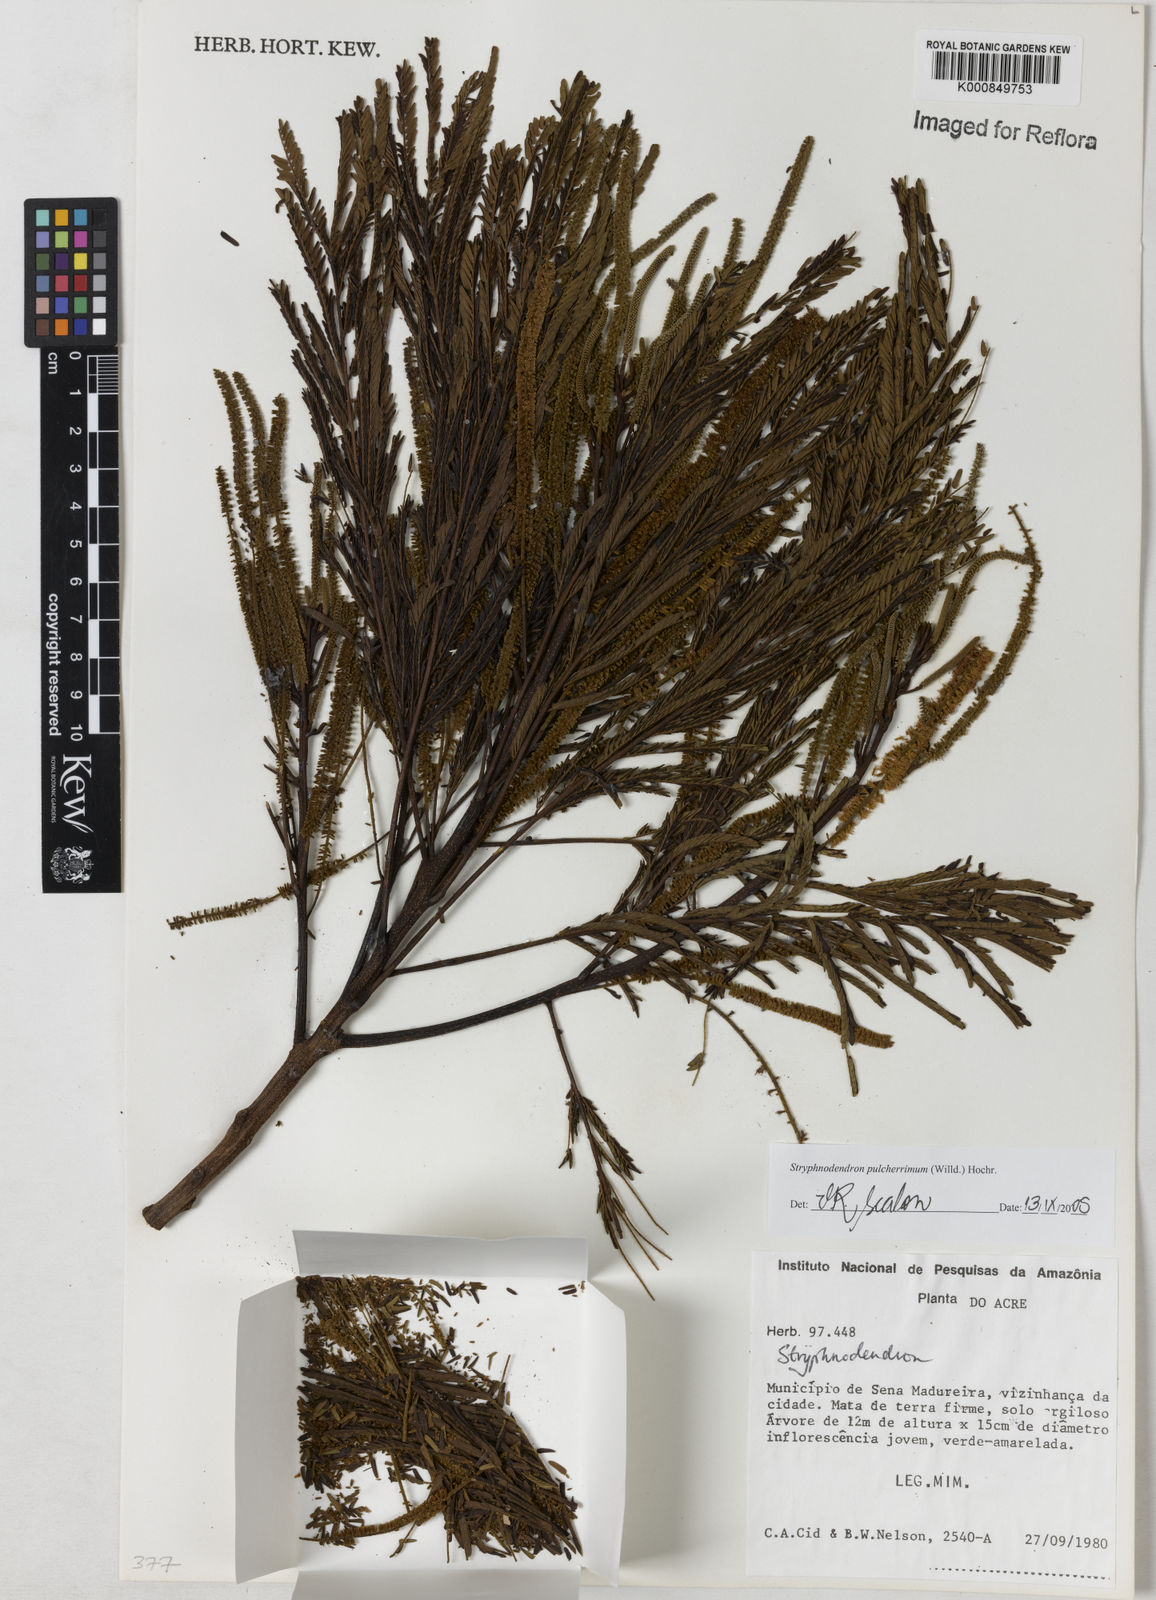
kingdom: Plantae
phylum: Tracheophyta
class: Magnoliopsida
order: Fabales
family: Fabaceae
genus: Stryphnodendron
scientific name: Stryphnodendron pulcherrimum
